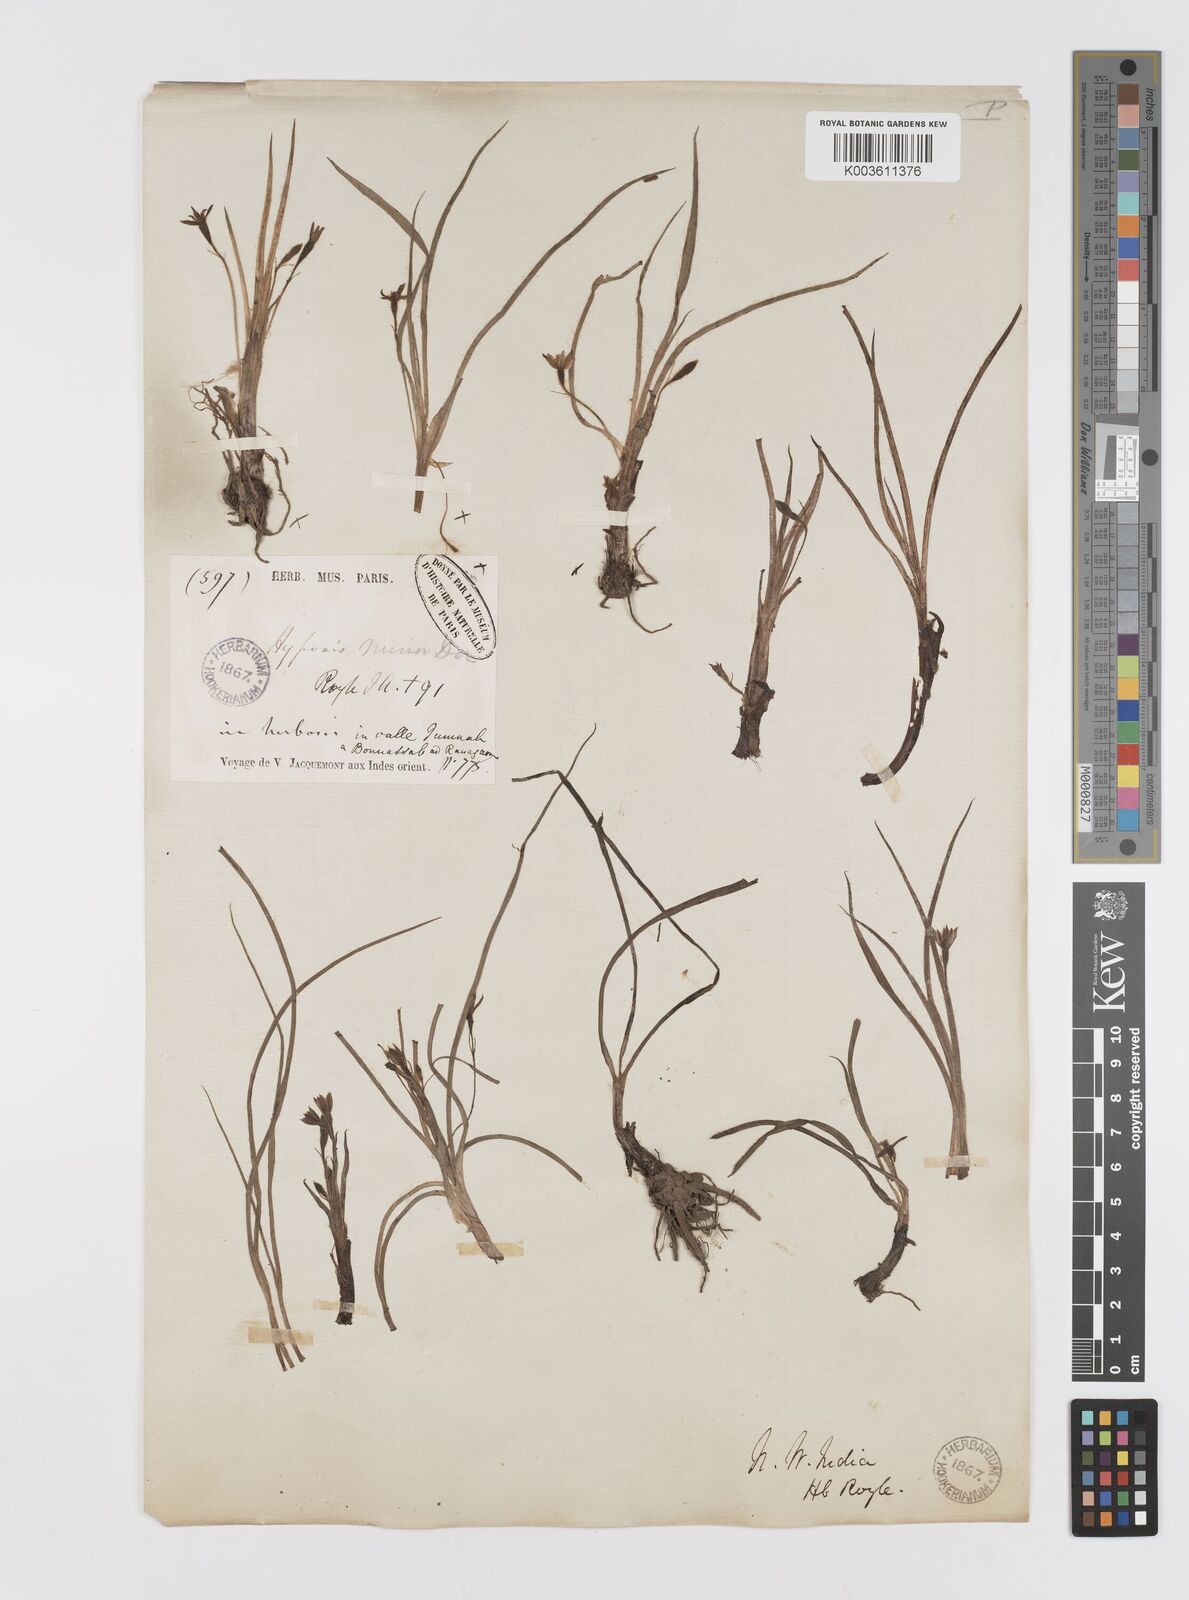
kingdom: Plantae
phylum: Tracheophyta
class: Liliopsida
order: Asparagales
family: Hypoxidaceae
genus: Hypoxis
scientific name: Hypoxis aurea
